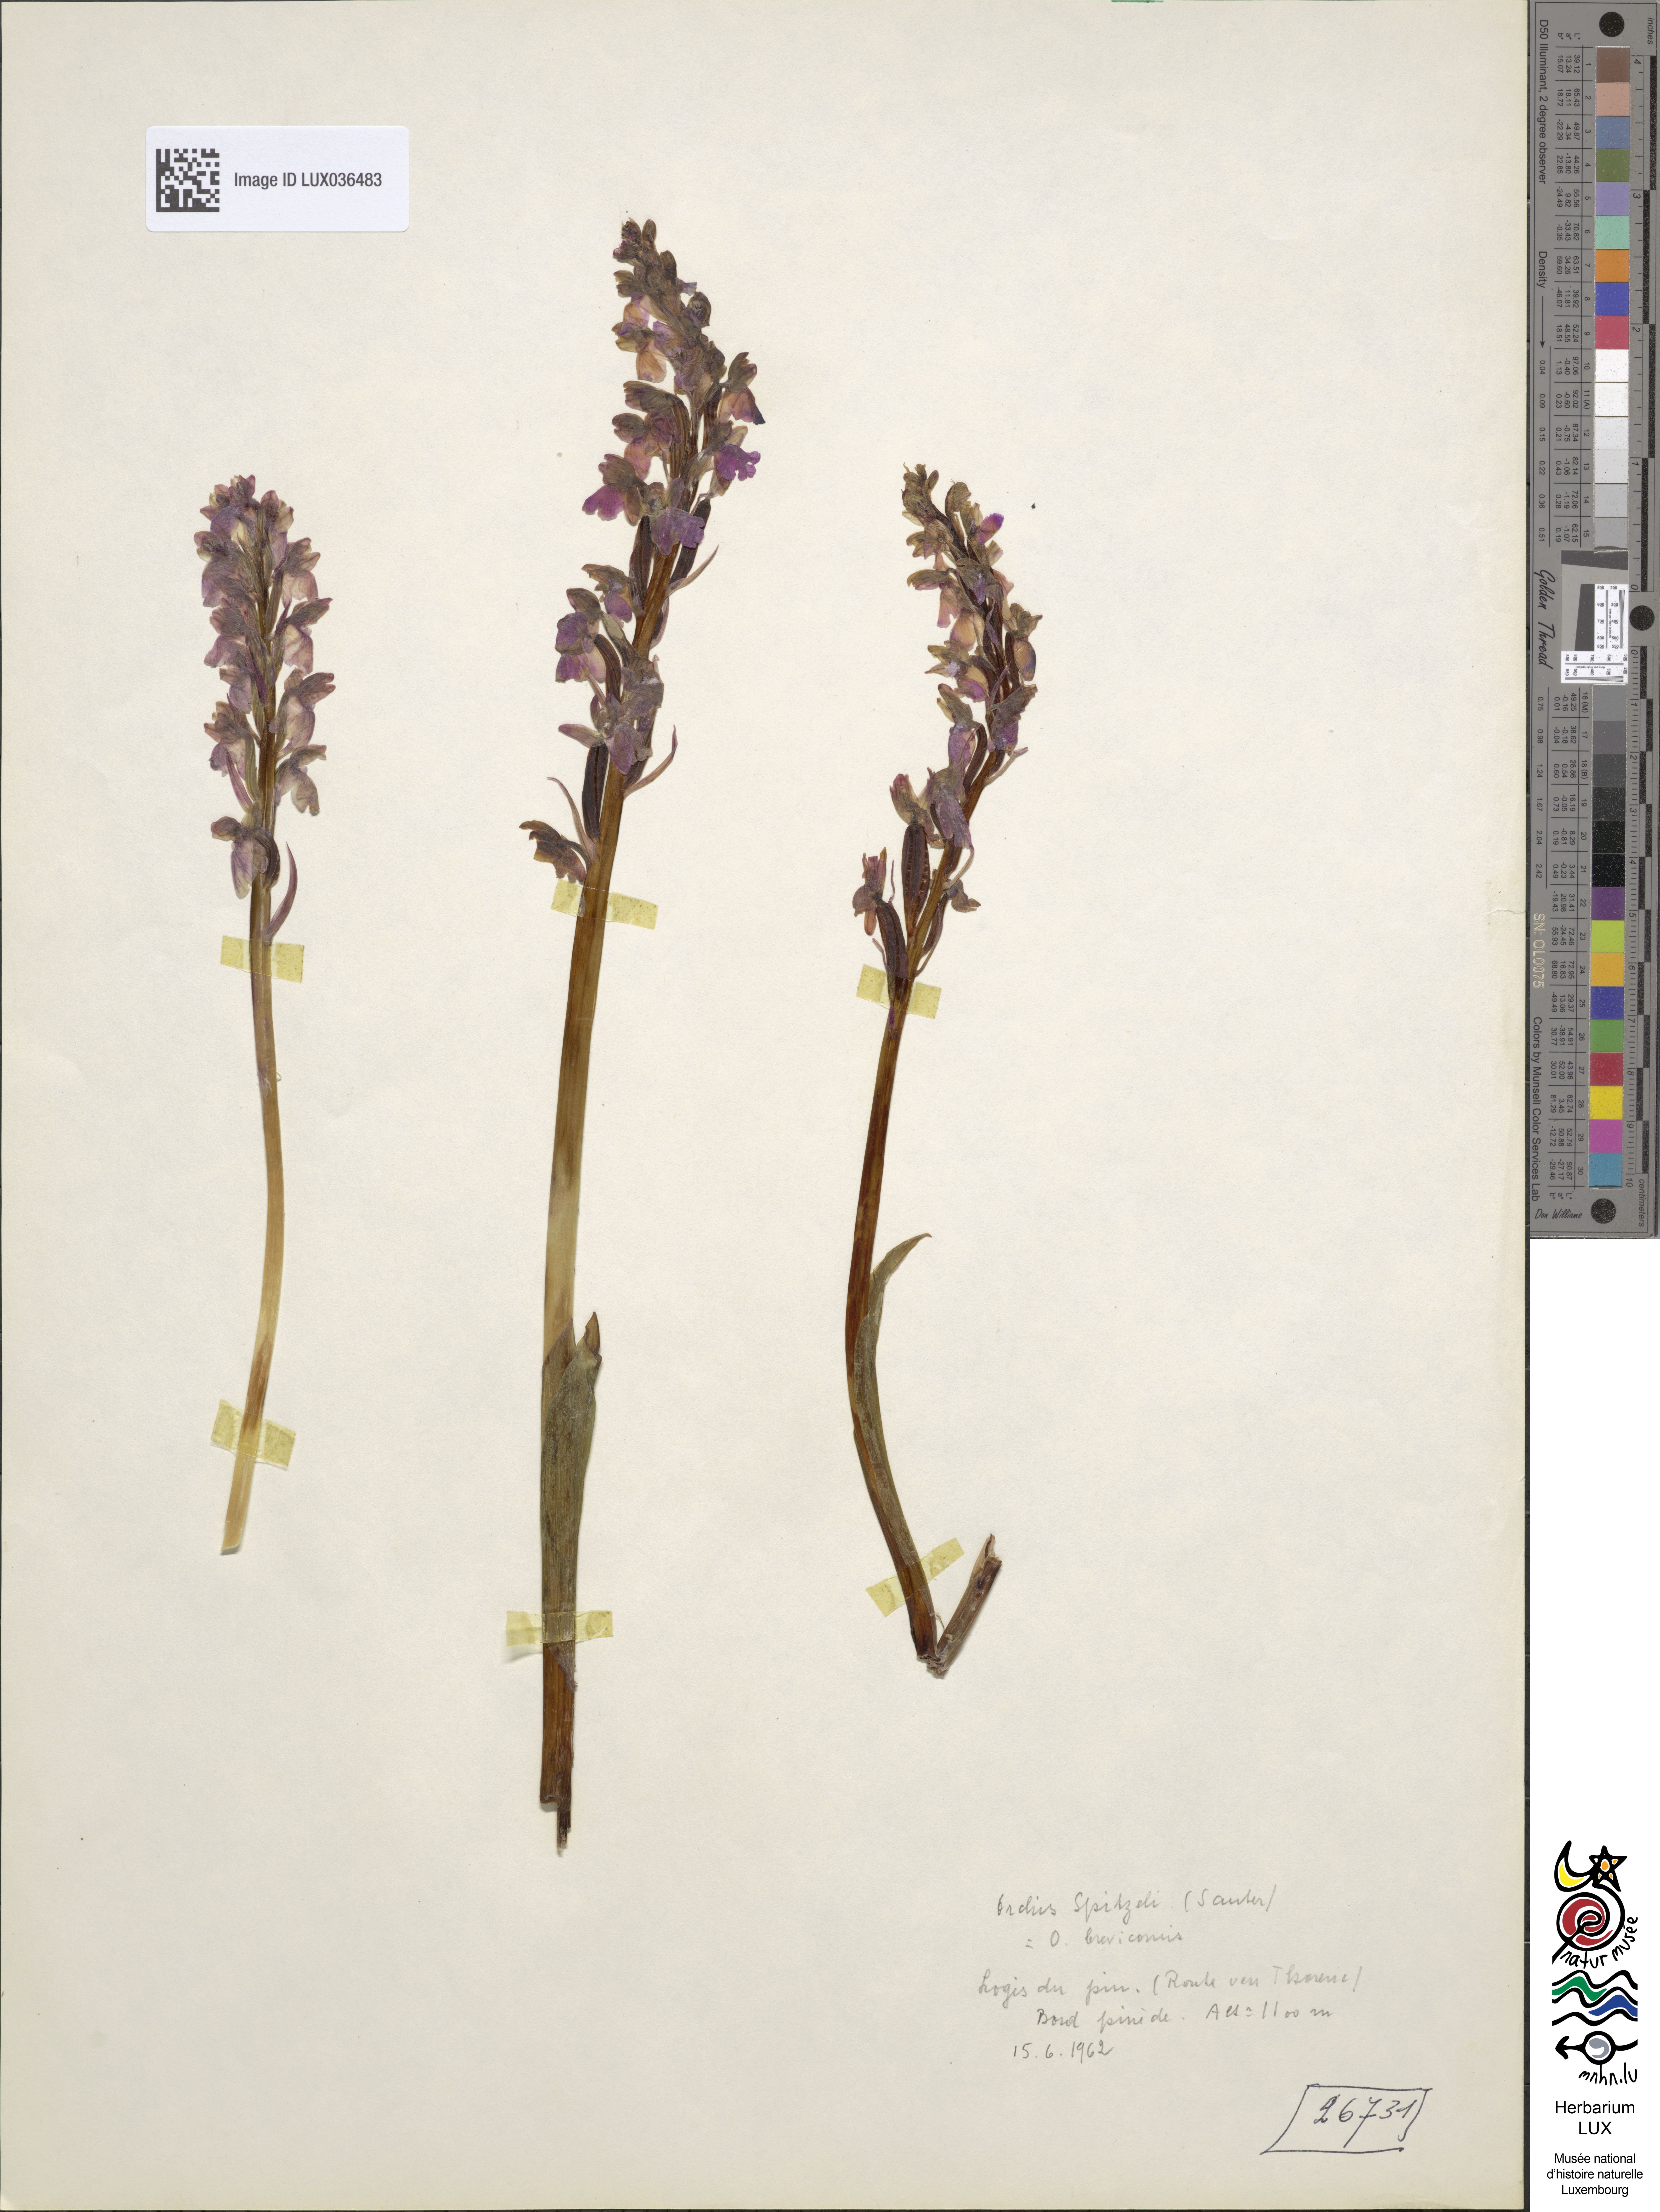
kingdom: Plantae
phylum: Tracheophyta
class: Liliopsida
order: Asparagales
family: Orchidaceae
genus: Orchis
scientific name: Orchis spitzelii
